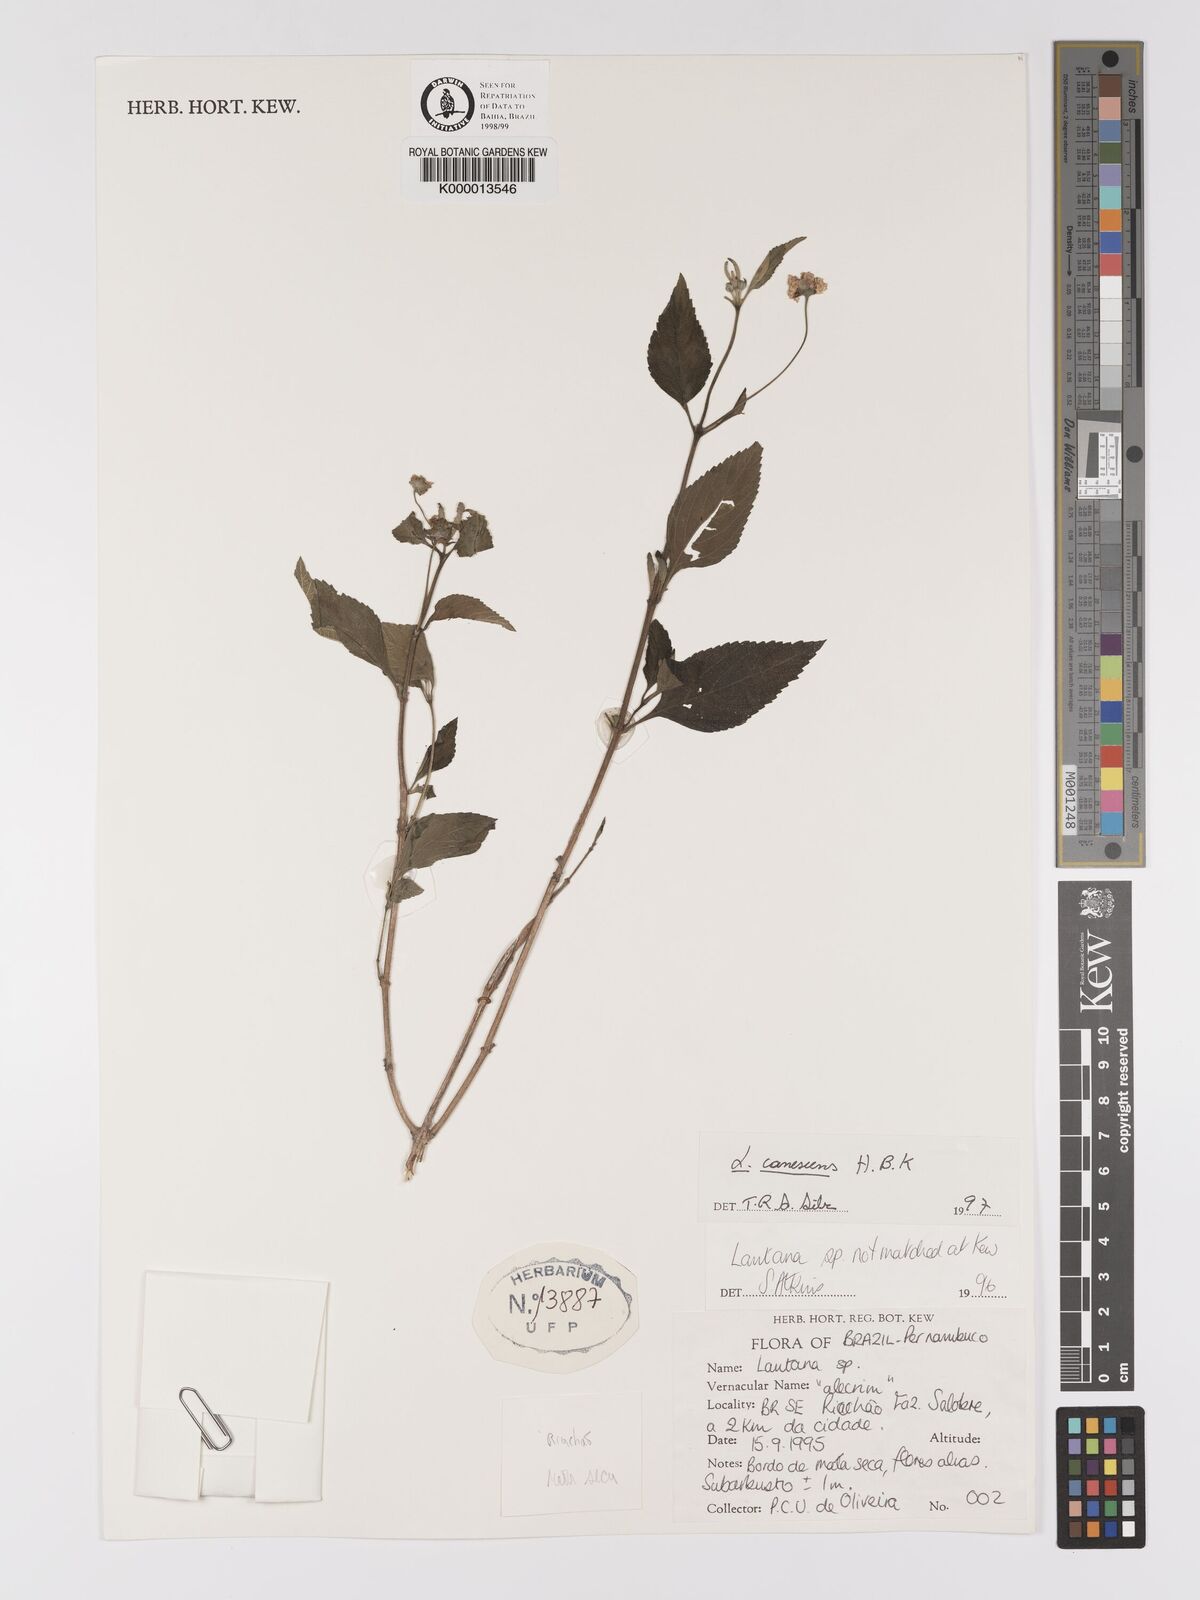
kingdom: Plantae
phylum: Tracheophyta
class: Magnoliopsida
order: Lamiales
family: Verbenaceae
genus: Lantana
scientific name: Lantana canescens
